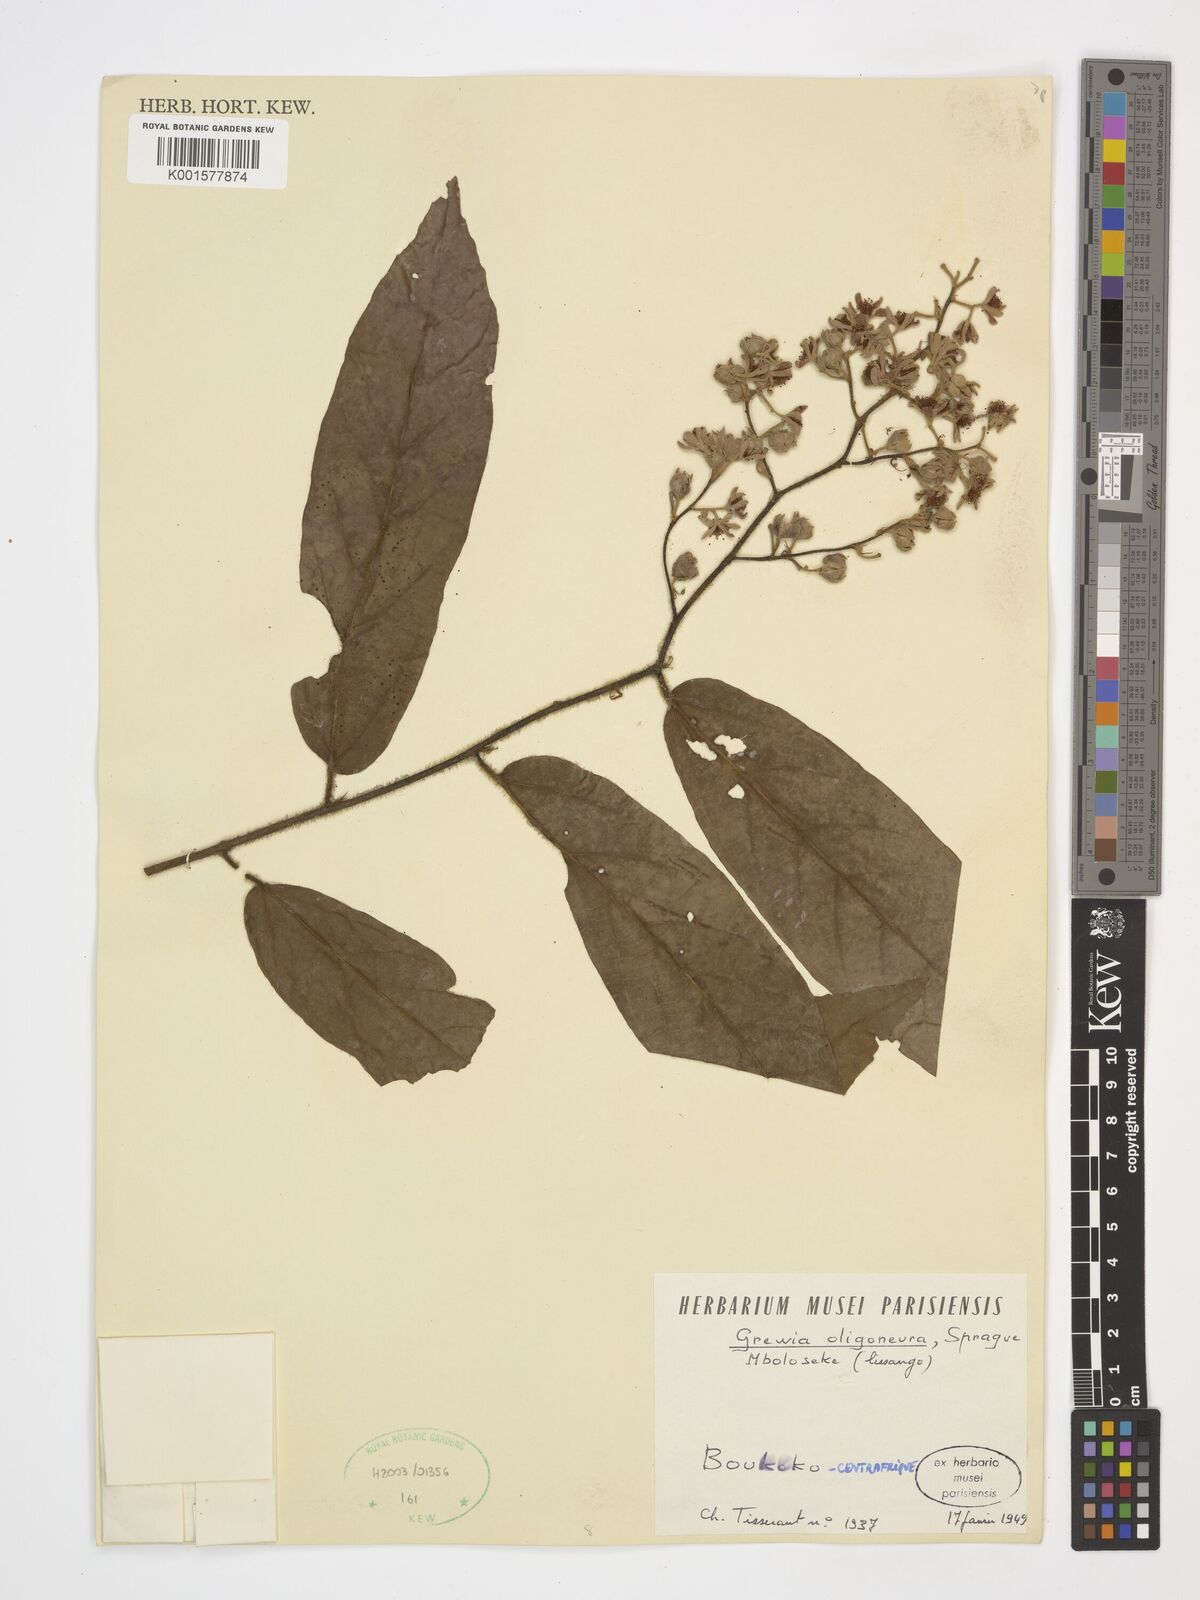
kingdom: Plantae
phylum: Tracheophyta
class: Magnoliopsida
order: Malvales
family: Malvaceae
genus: Microcos
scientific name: Microcos oligoneura
